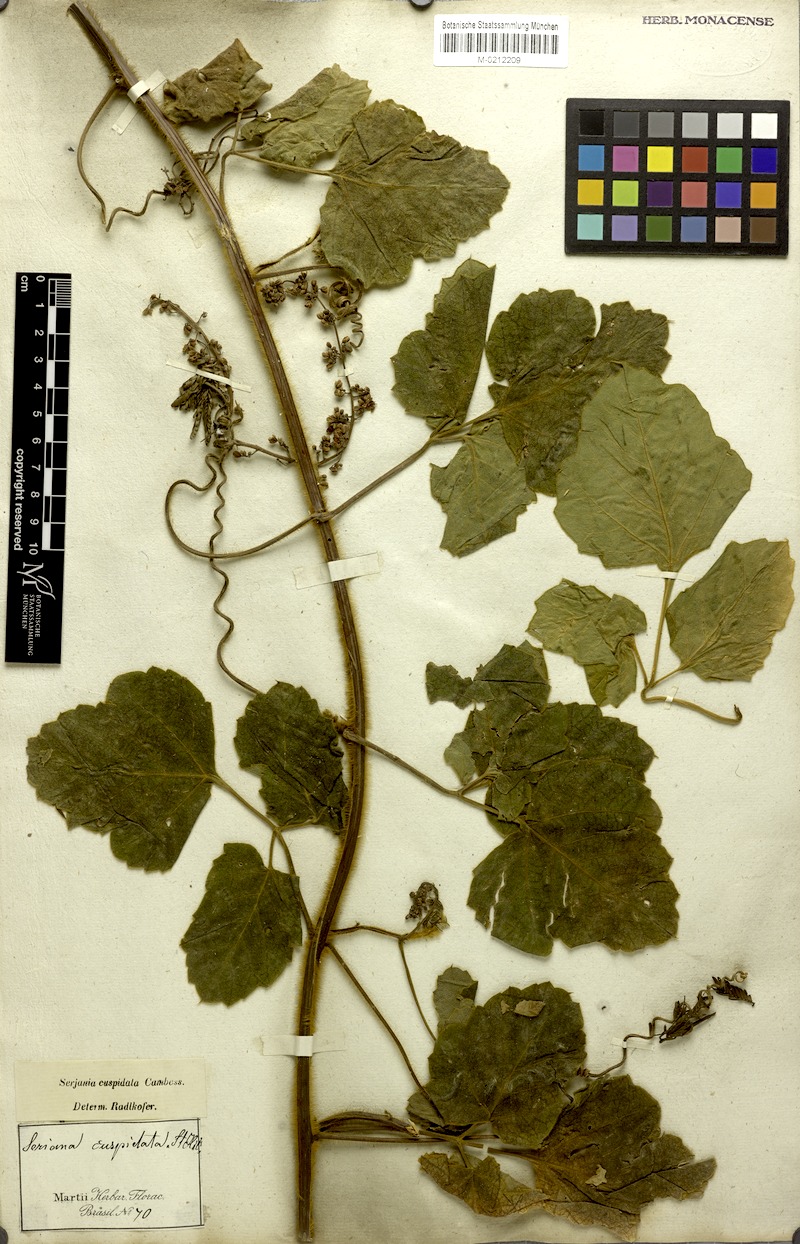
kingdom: Plantae
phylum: Tracheophyta
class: Magnoliopsida
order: Sapindales
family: Sapindaceae
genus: Serjania
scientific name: Serjania ferruginea
